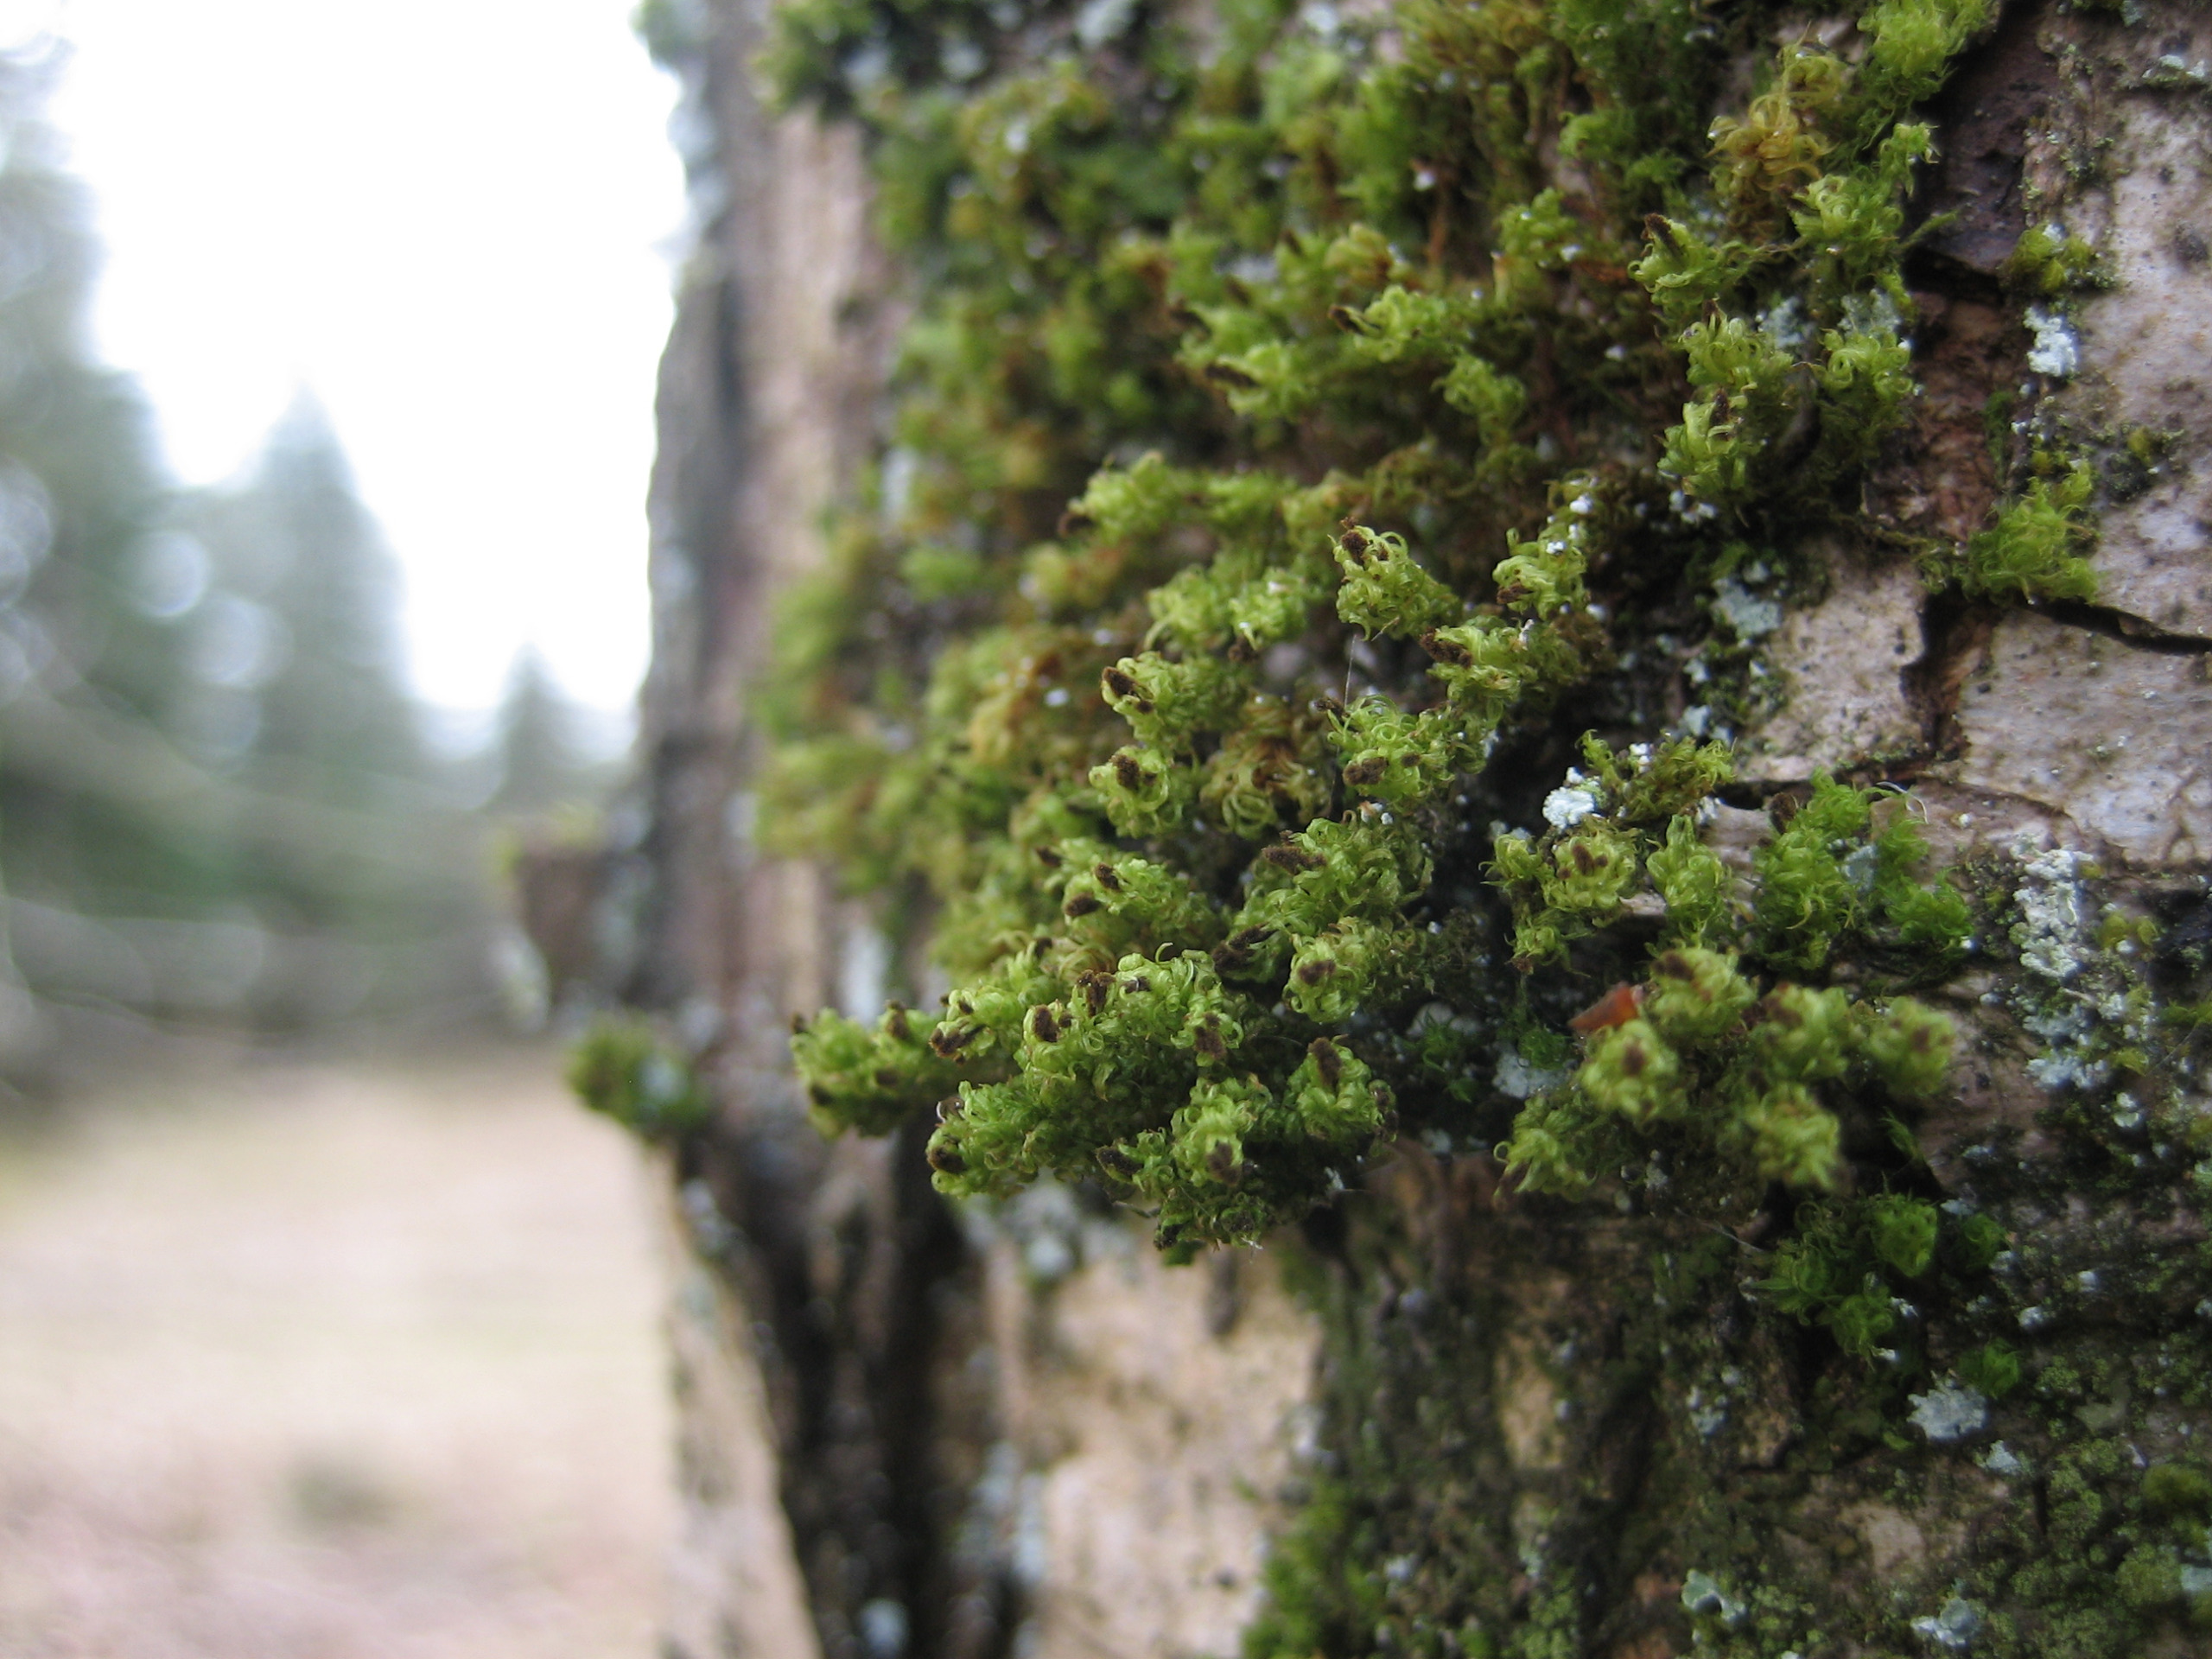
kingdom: Plantae
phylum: Bryophyta
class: Bryopsida
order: Orthotrichales
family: Orthotrichaceae
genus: Plenogemma
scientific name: Plenogemma phyllantha
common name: Stor låddenhætte
